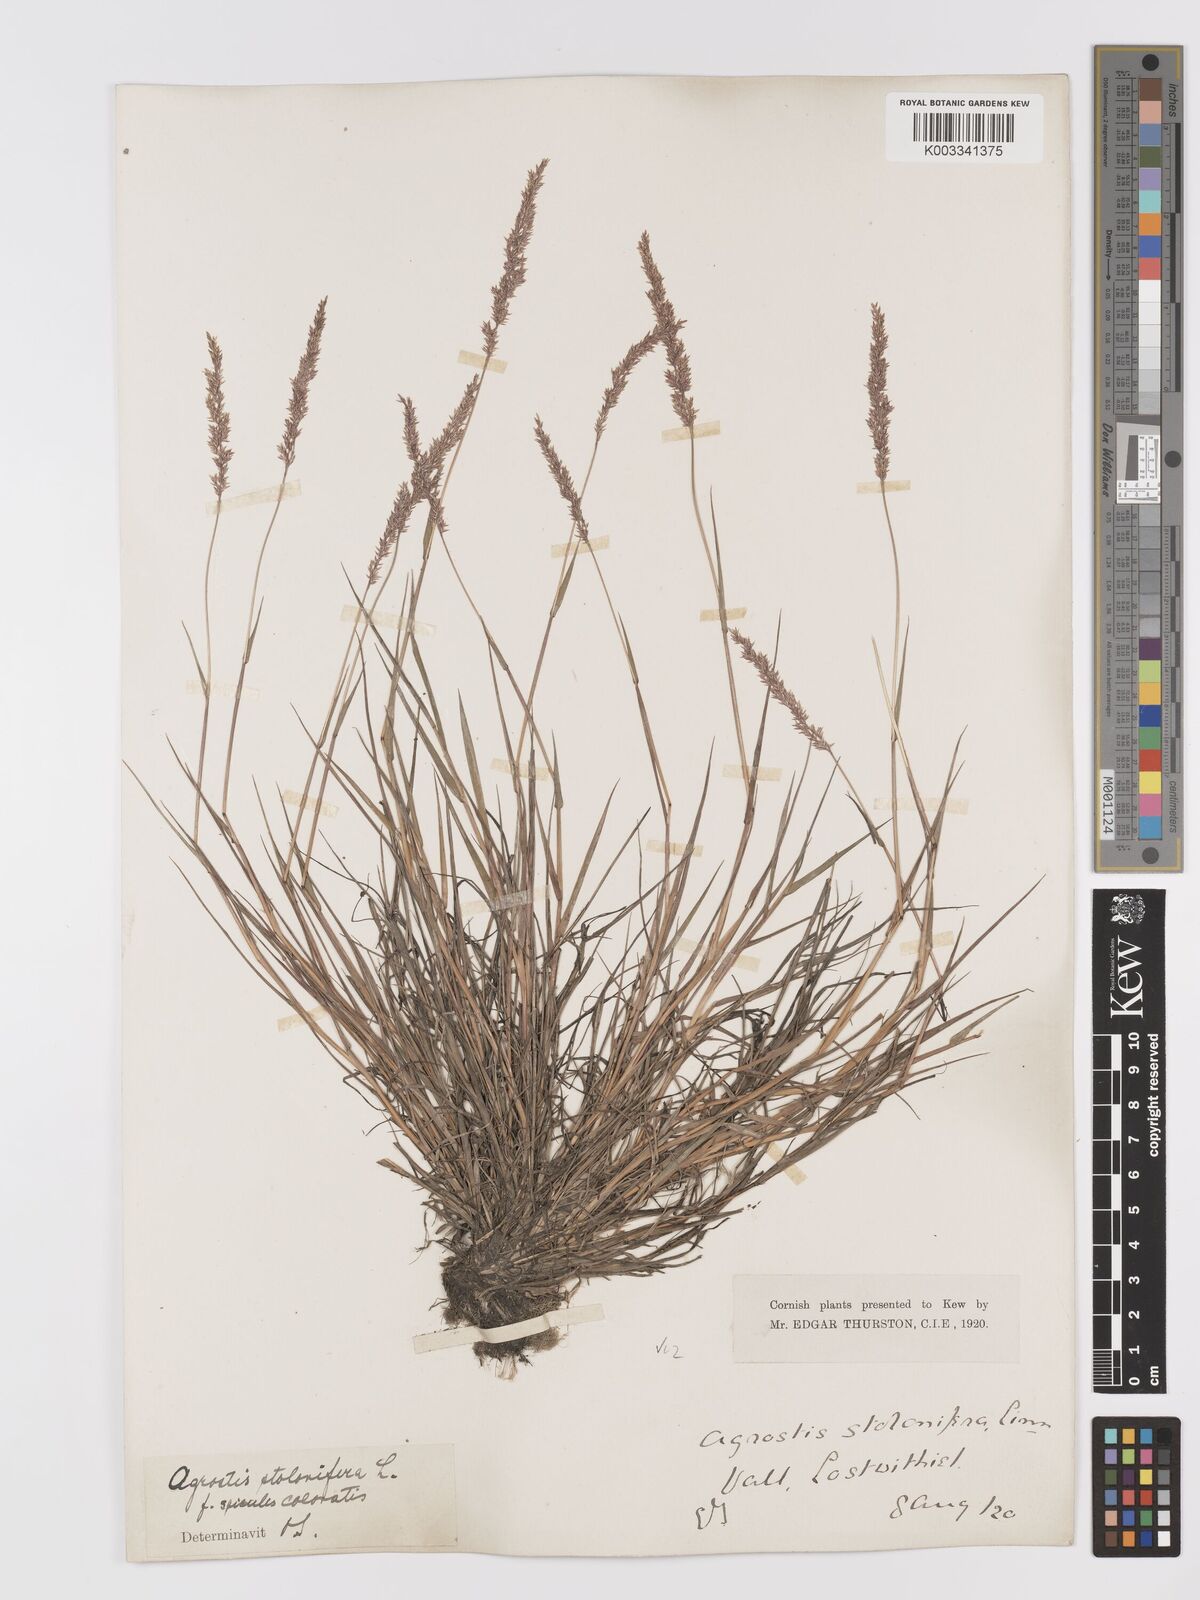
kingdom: Plantae
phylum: Tracheophyta
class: Liliopsida
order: Poales
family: Poaceae
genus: Agrostis
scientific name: Agrostis stolonifera
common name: Creeping bentgrass
